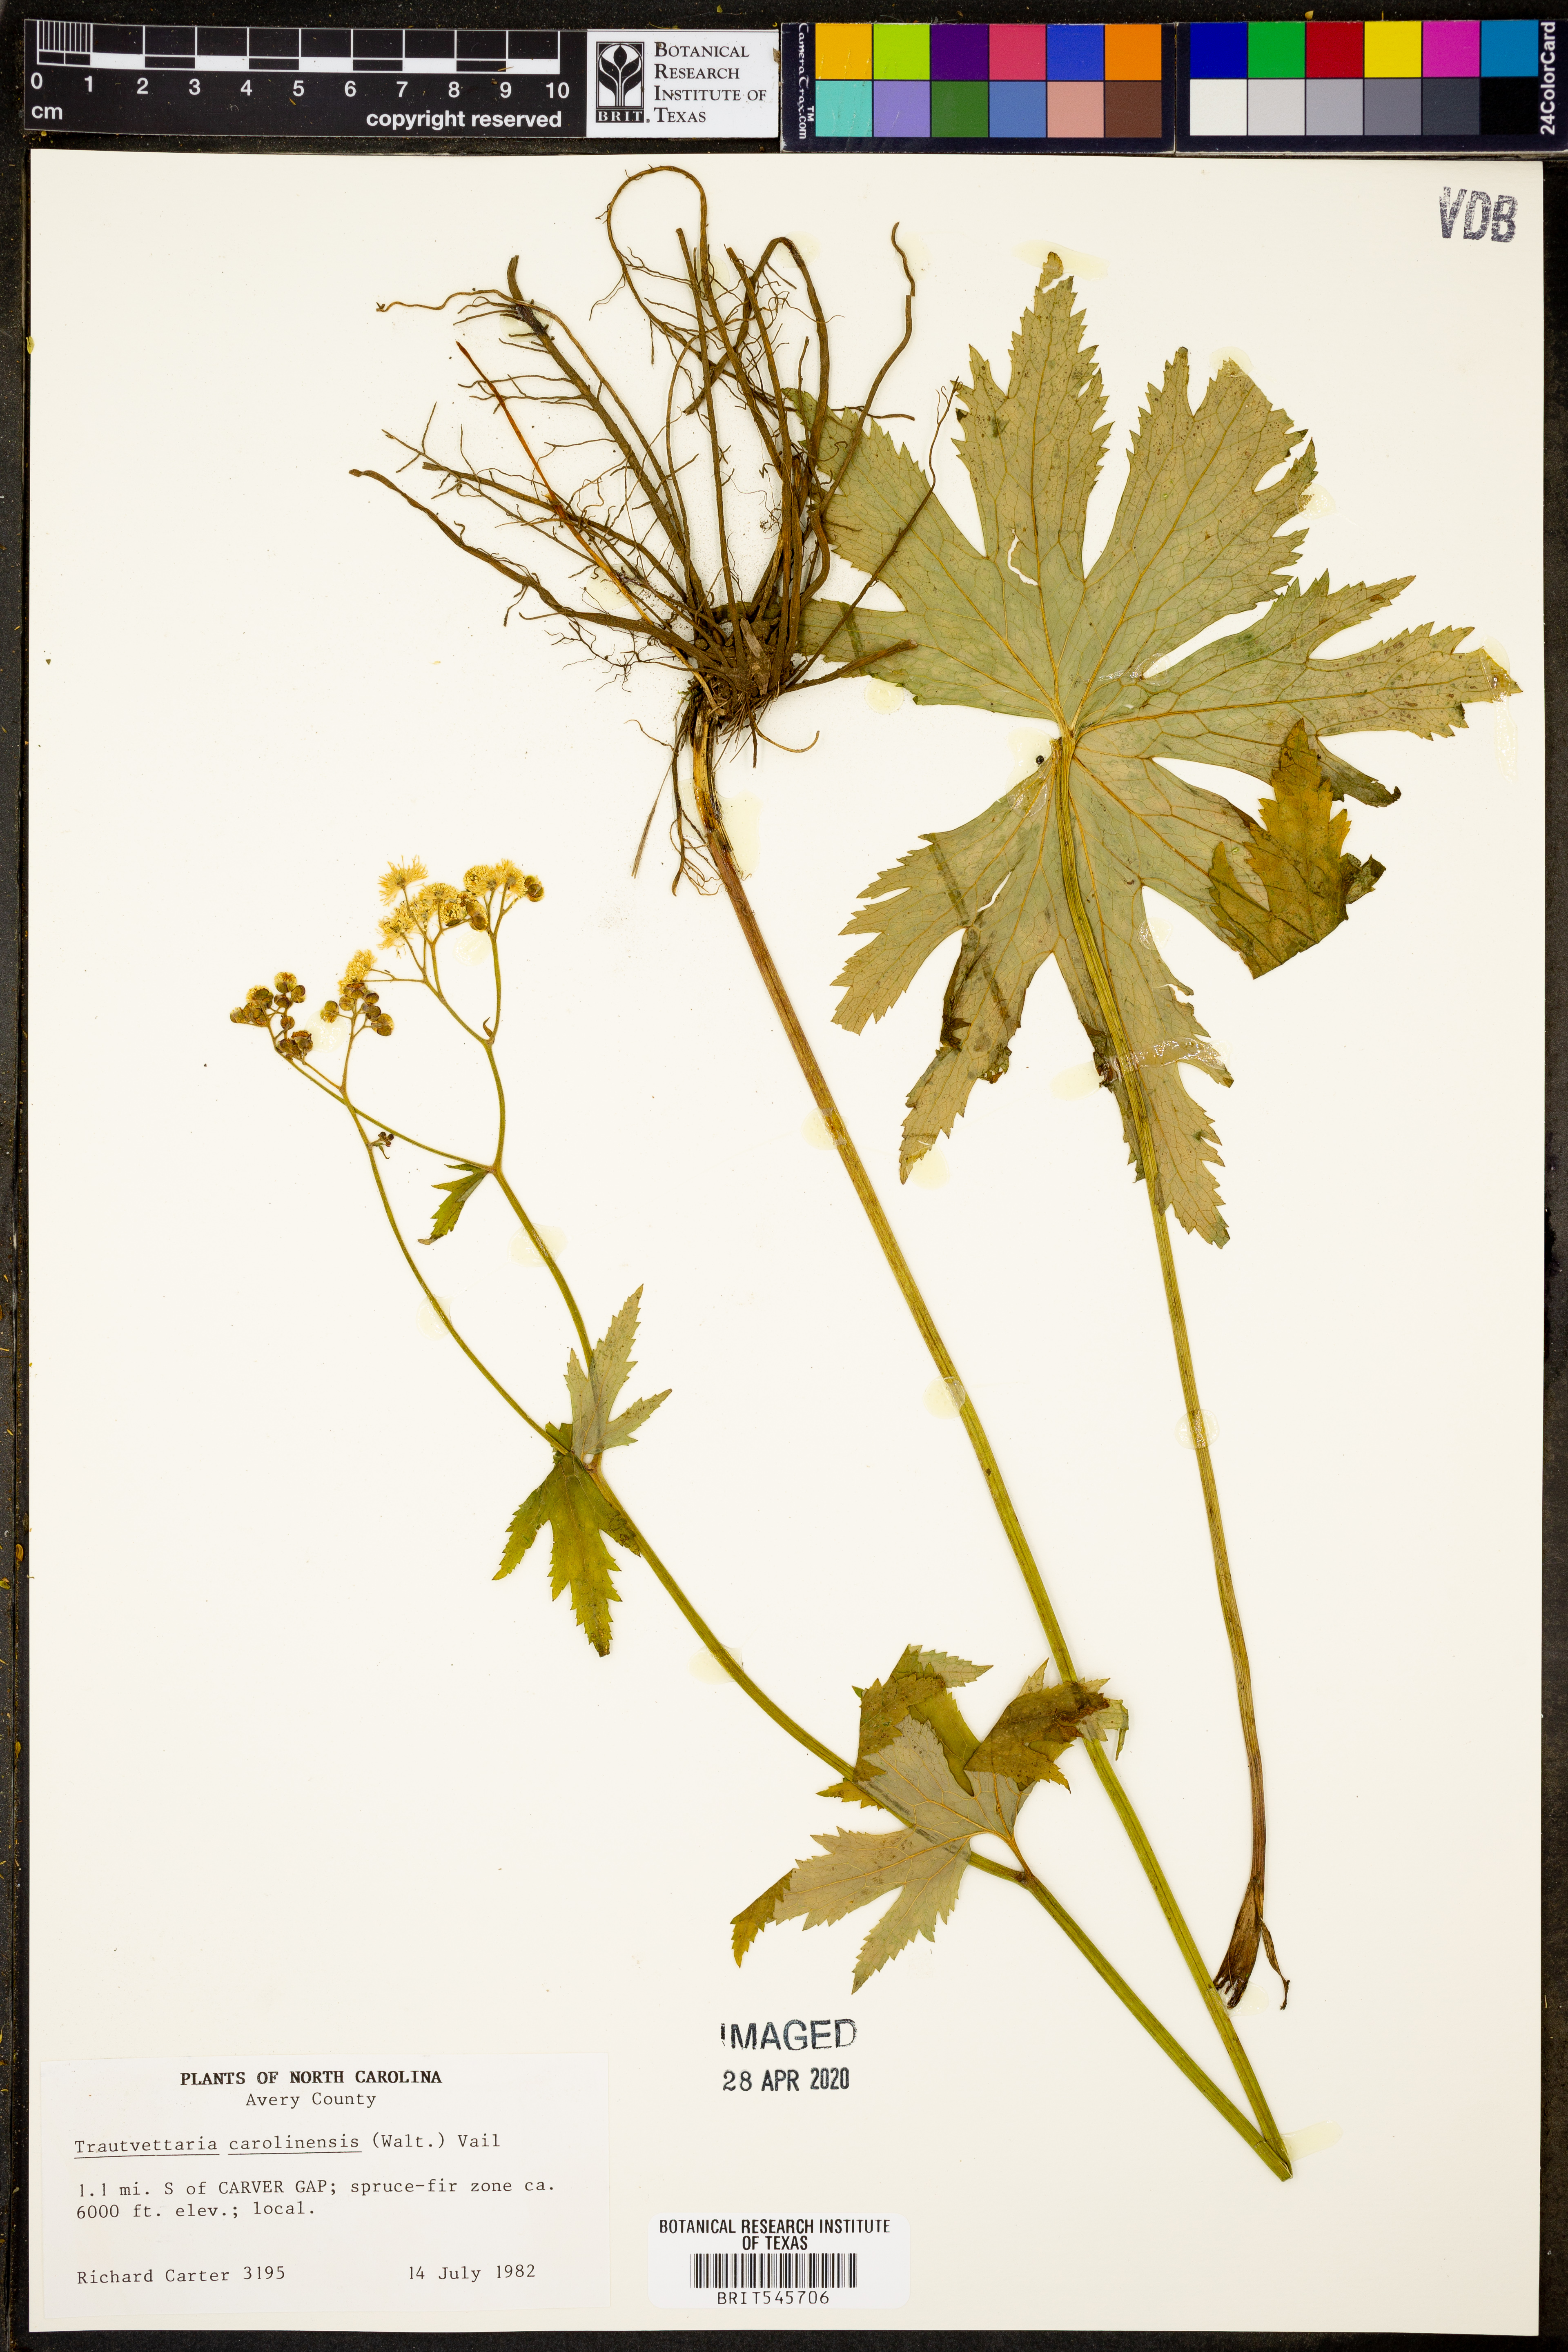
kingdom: Plantae
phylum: Tracheophyta
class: Magnoliopsida
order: Ranunculales
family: Ranunculaceae
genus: Trautvetteria
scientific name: Trautvetteria carolinensis
